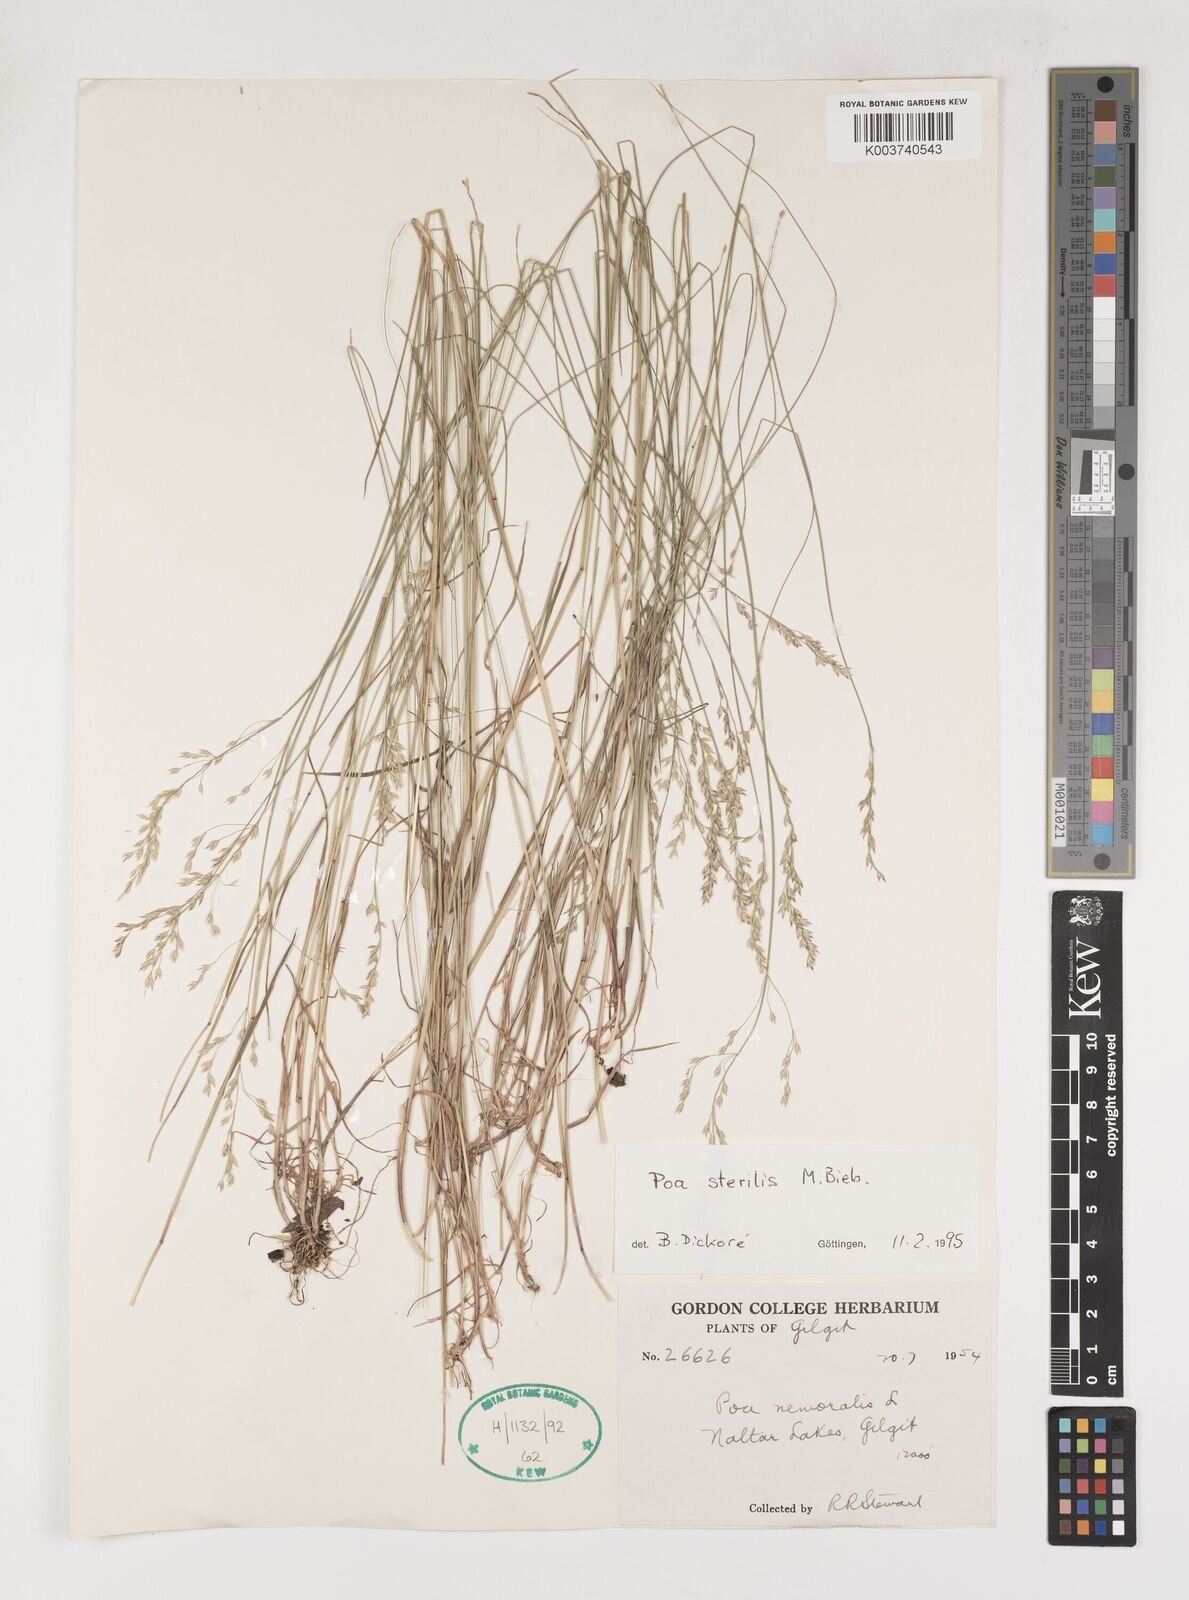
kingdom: Plantae
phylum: Tracheophyta
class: Liliopsida
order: Poales
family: Poaceae
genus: Poa
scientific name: Poa sterilis
